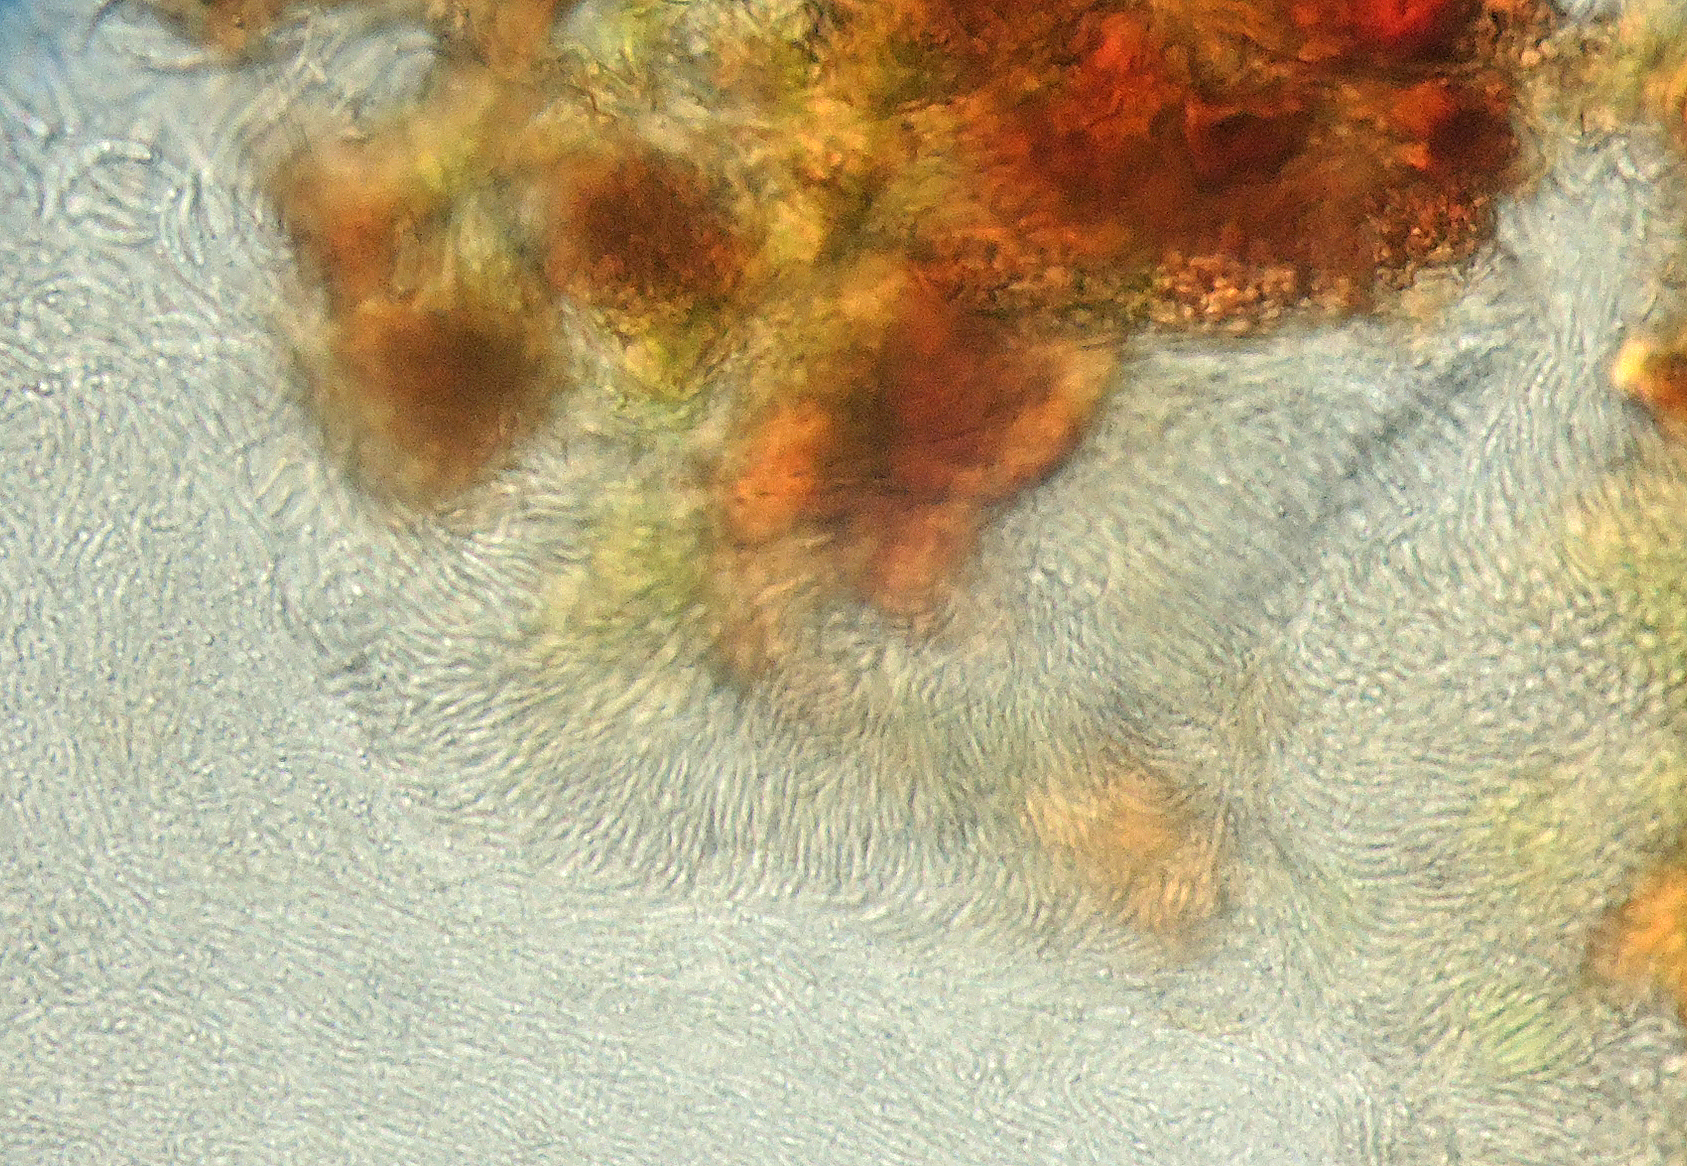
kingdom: Fungi
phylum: Ascomycota
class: Leotiomycetes
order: Helotiales
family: Godroniaceae
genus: Godronia
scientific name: Godronia cassandrae
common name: lyng-urneskive
